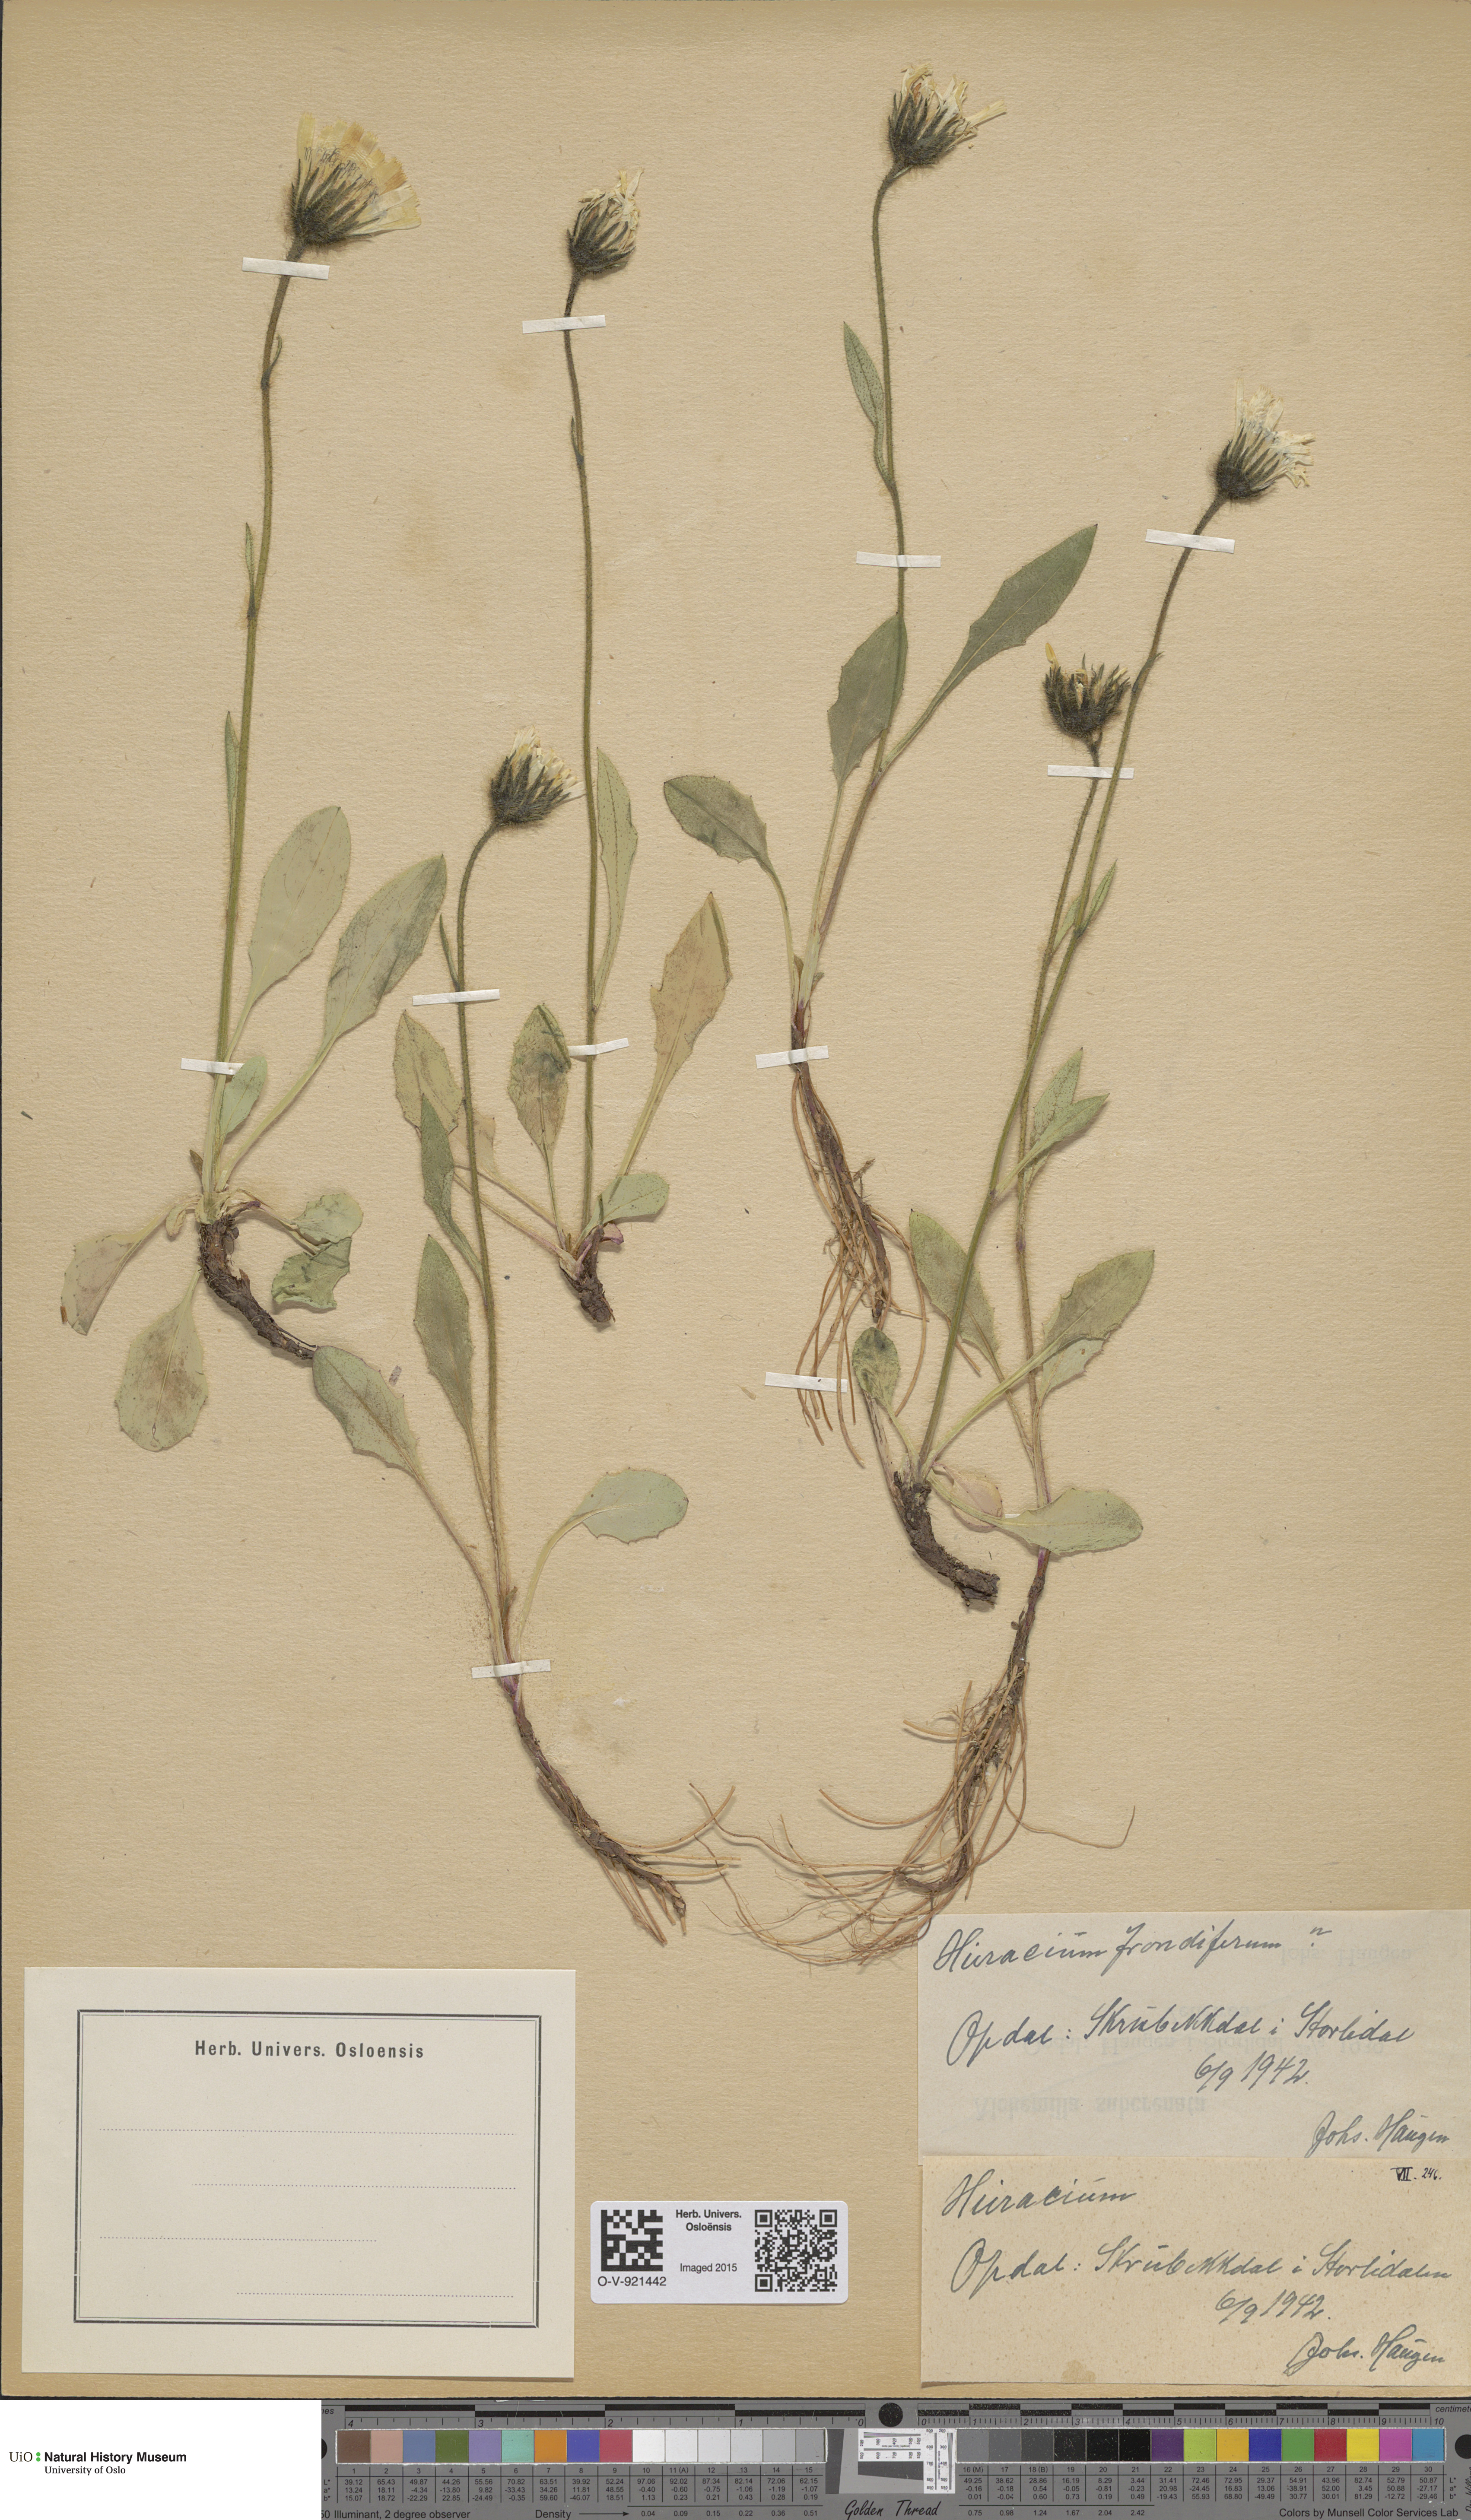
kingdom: Plantae
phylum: Tracheophyta
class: Magnoliopsida
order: Asterales
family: Asteraceae
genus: Hieracium
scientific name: Hieracium alpinum
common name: Alpine hawkweed
